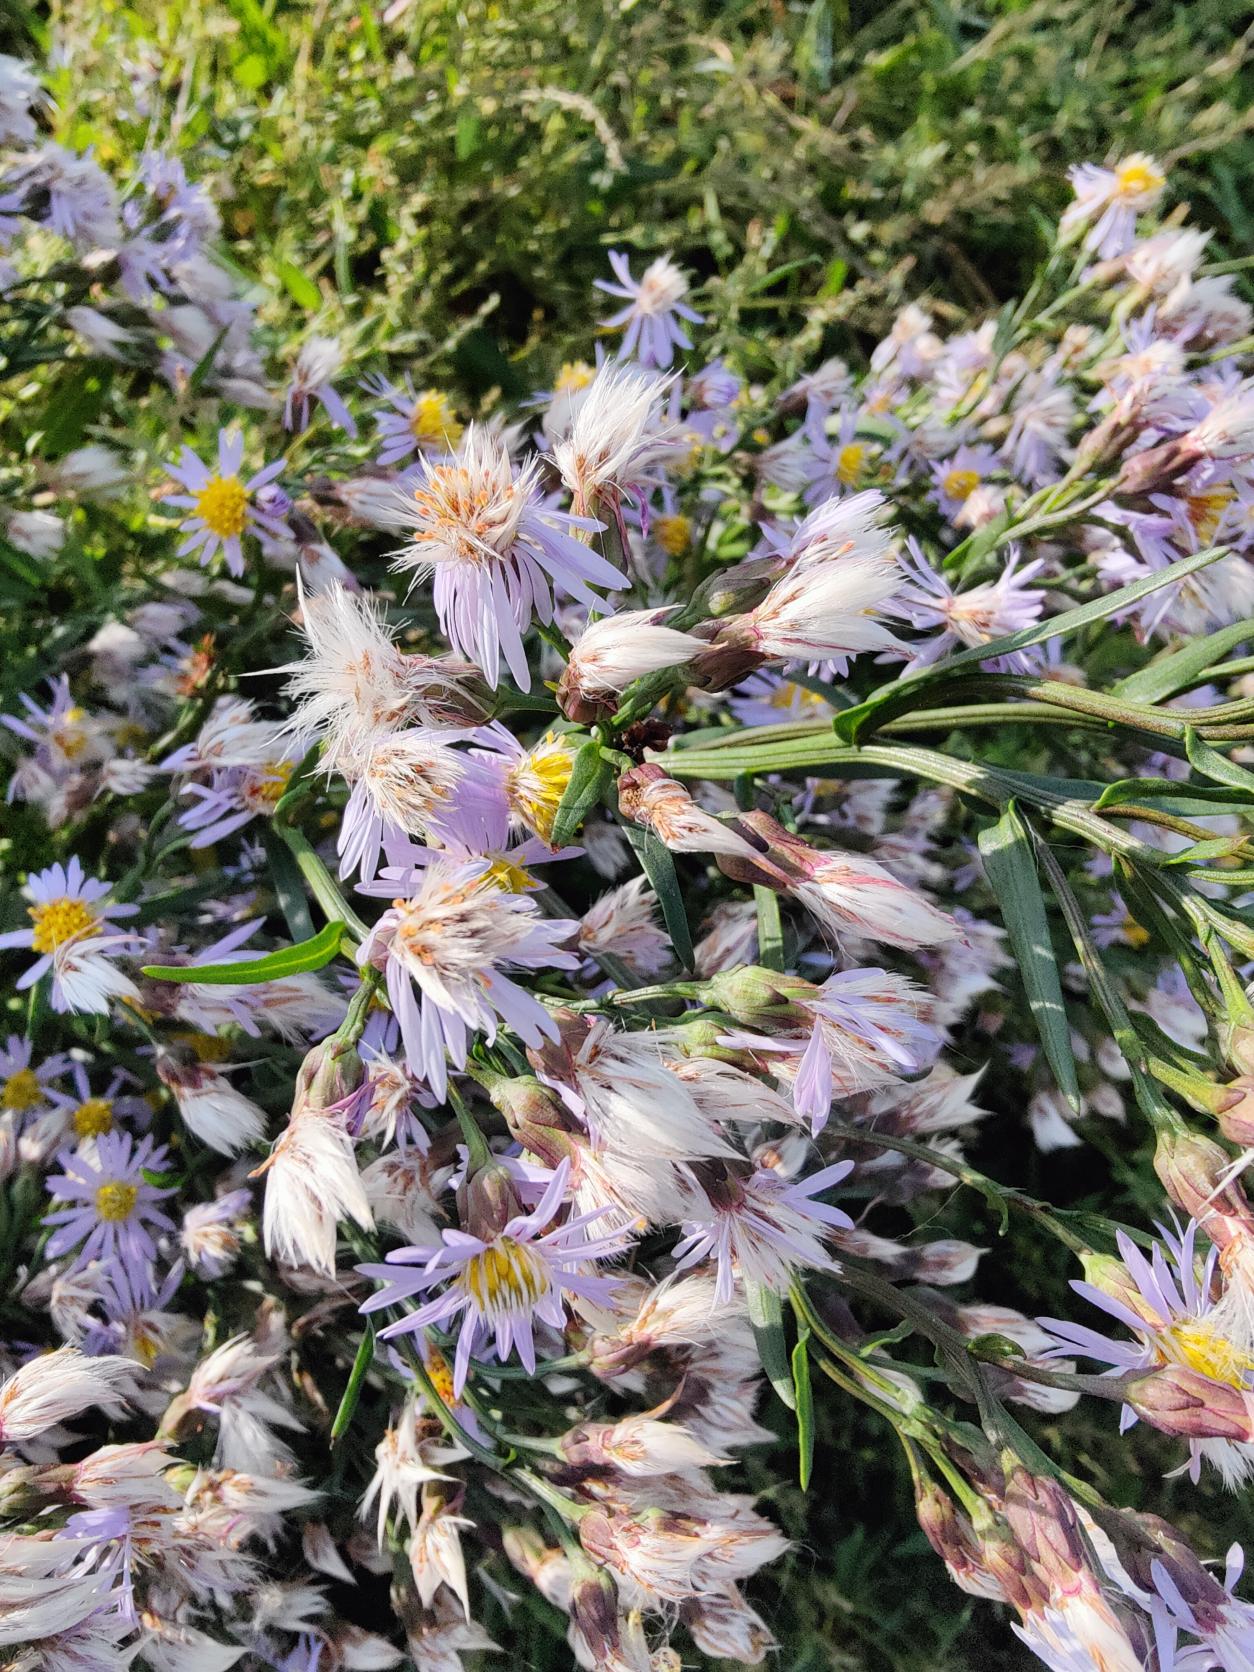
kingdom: Plantae
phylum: Tracheophyta
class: Magnoliopsida
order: Asterales
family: Asteraceae
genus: Tripolium
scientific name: Tripolium pannonicum
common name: Strandasters
